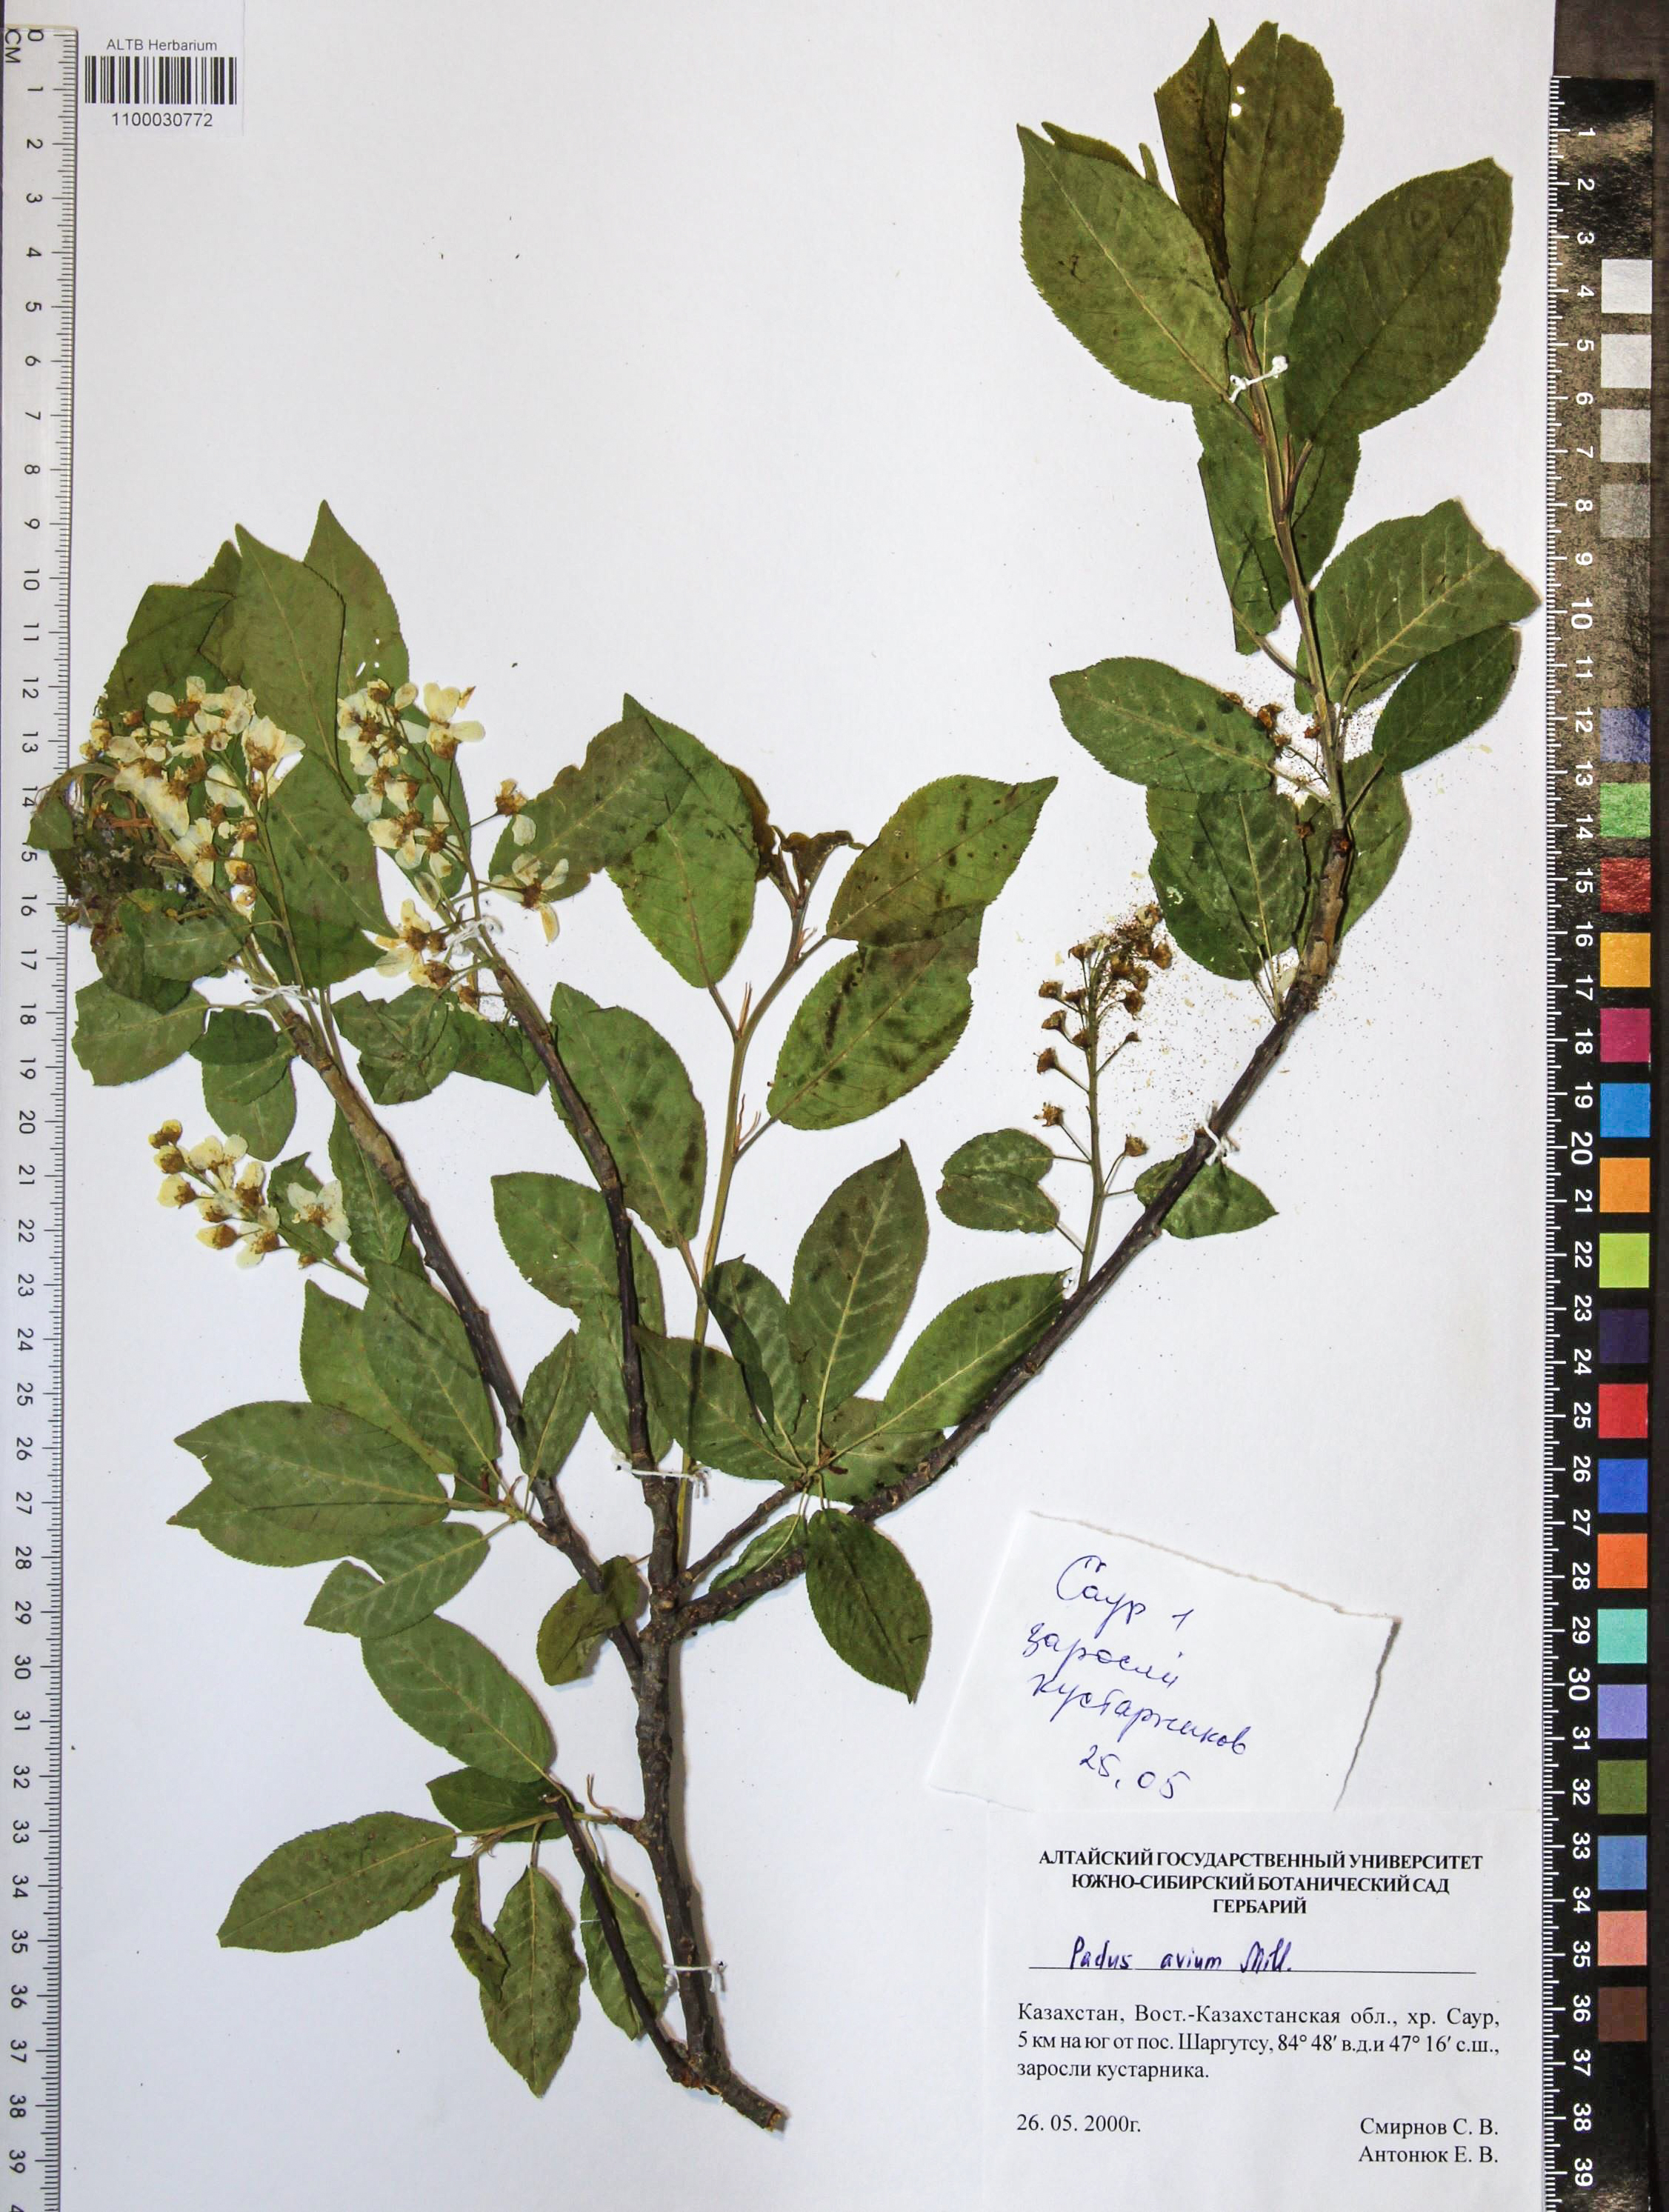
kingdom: Plantae
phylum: Tracheophyta
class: Magnoliopsida
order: Rosales
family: Rosaceae
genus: Prunus
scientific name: Prunus padus
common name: Bird cherry
